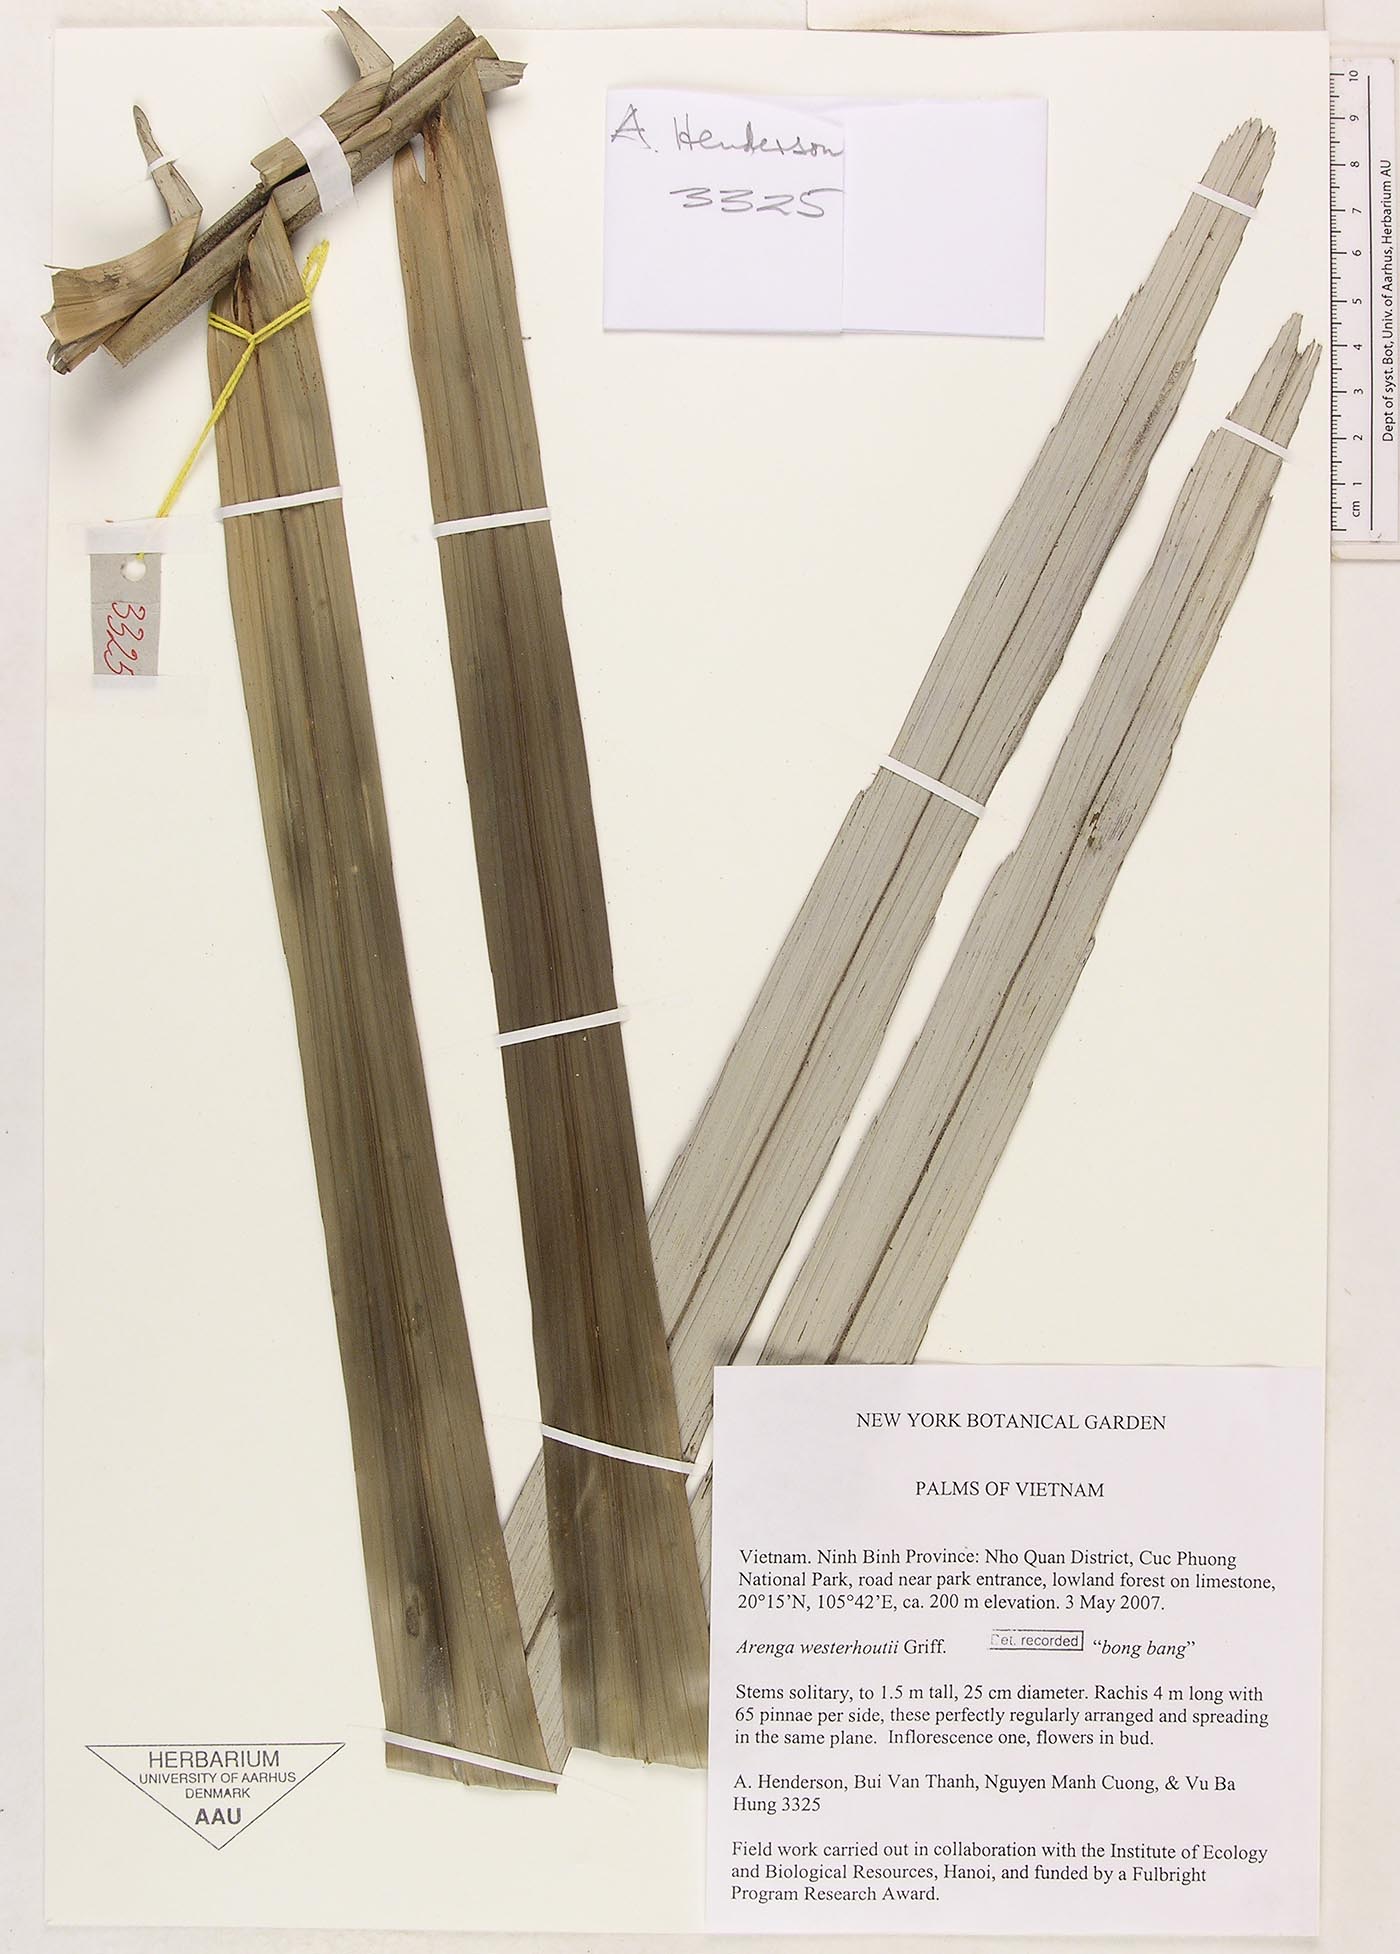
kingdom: Plantae
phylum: Tracheophyta
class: Liliopsida
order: Arecales
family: Arecaceae
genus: Arenga
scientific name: Arenga westerhoutii
